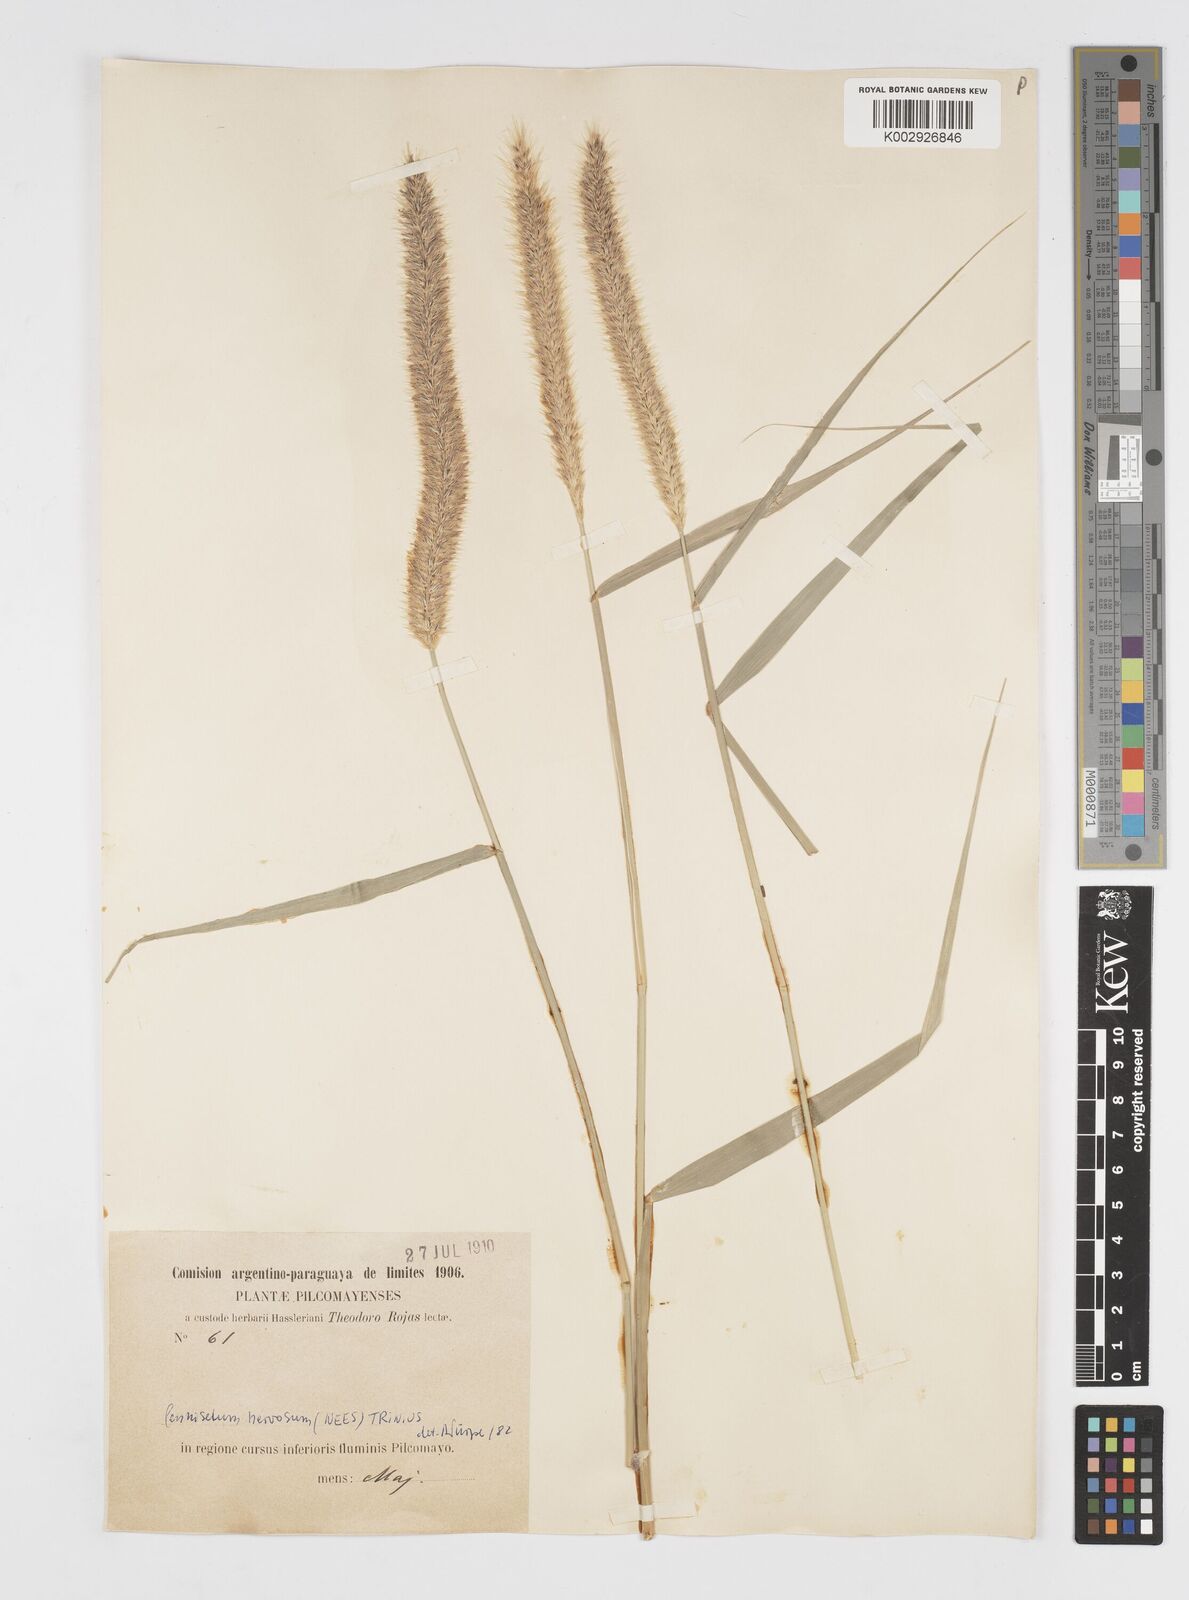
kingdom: Plantae
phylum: Tracheophyta
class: Liliopsida
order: Poales
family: Poaceae
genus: Cenchrus
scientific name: Cenchrus nervosus
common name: Bentspike fountaingrass
